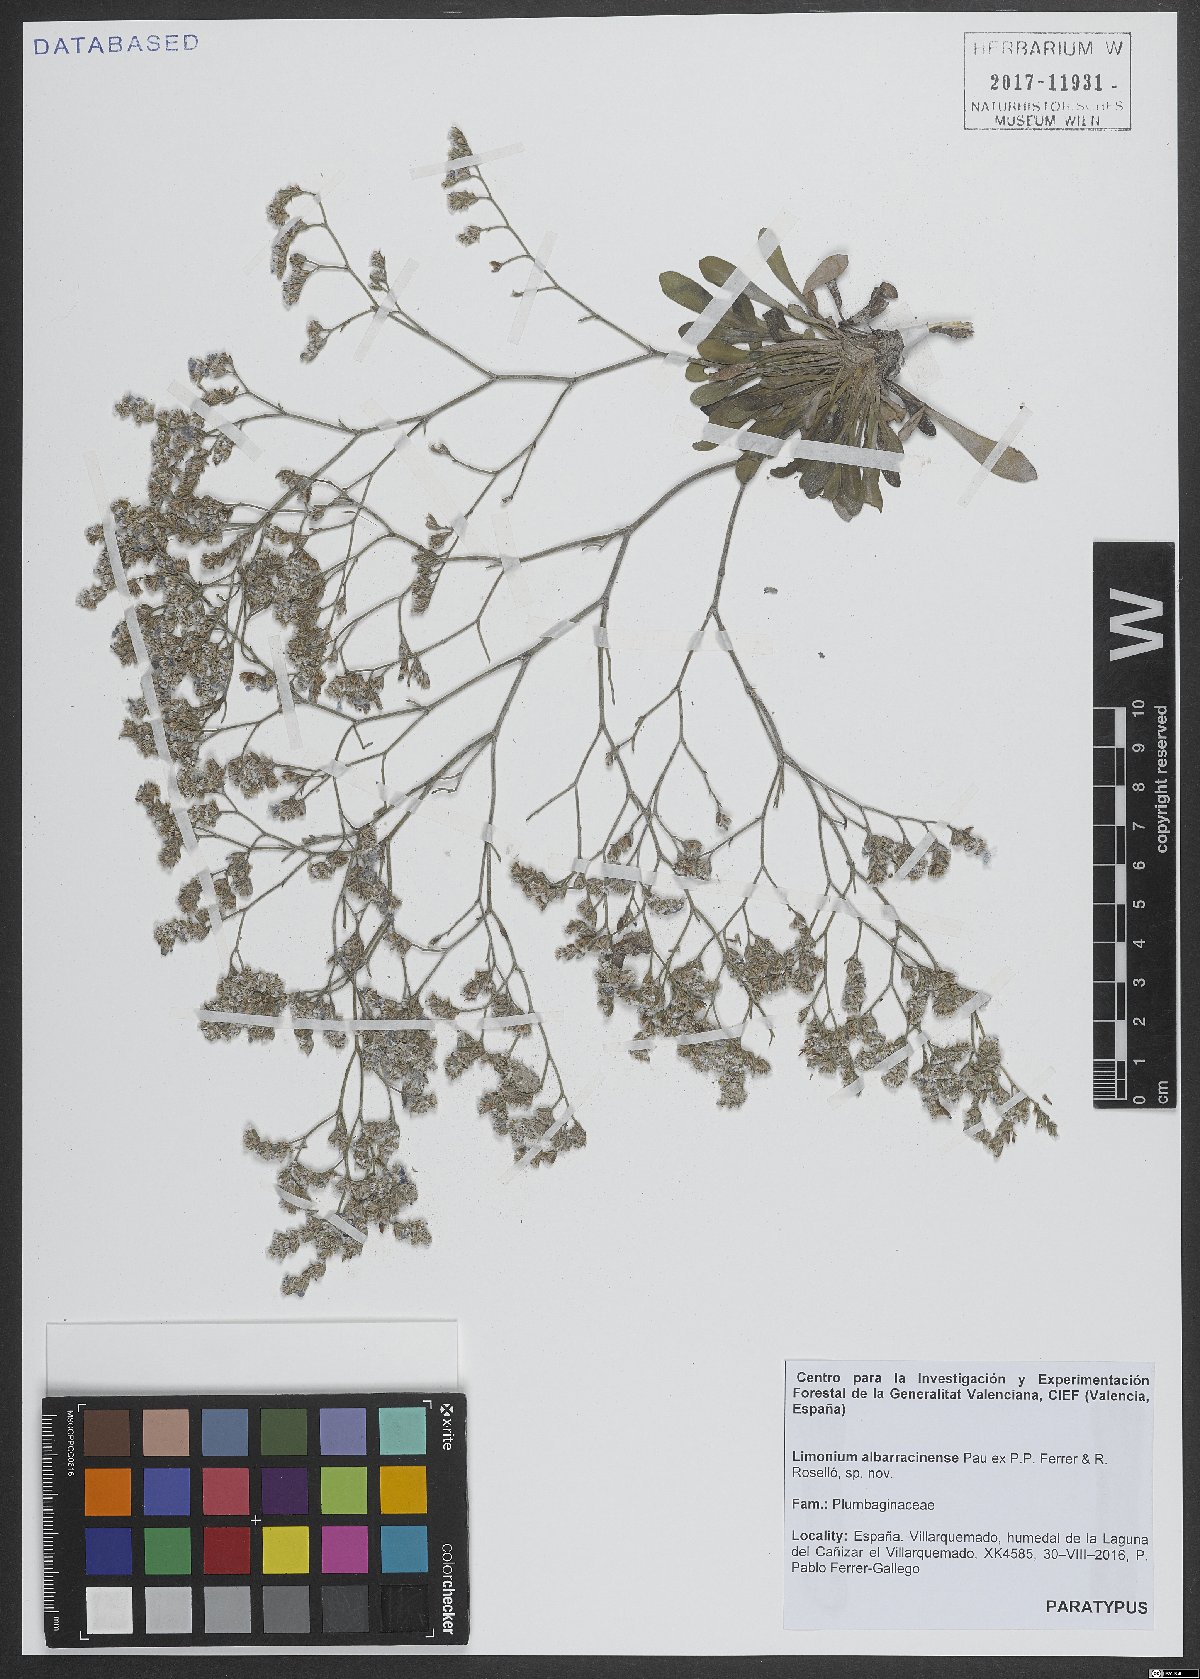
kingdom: Plantae
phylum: Tracheophyta
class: Magnoliopsida
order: Caryophyllales
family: Plumbaginaceae
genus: Limonium
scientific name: Limonium albarracinense
